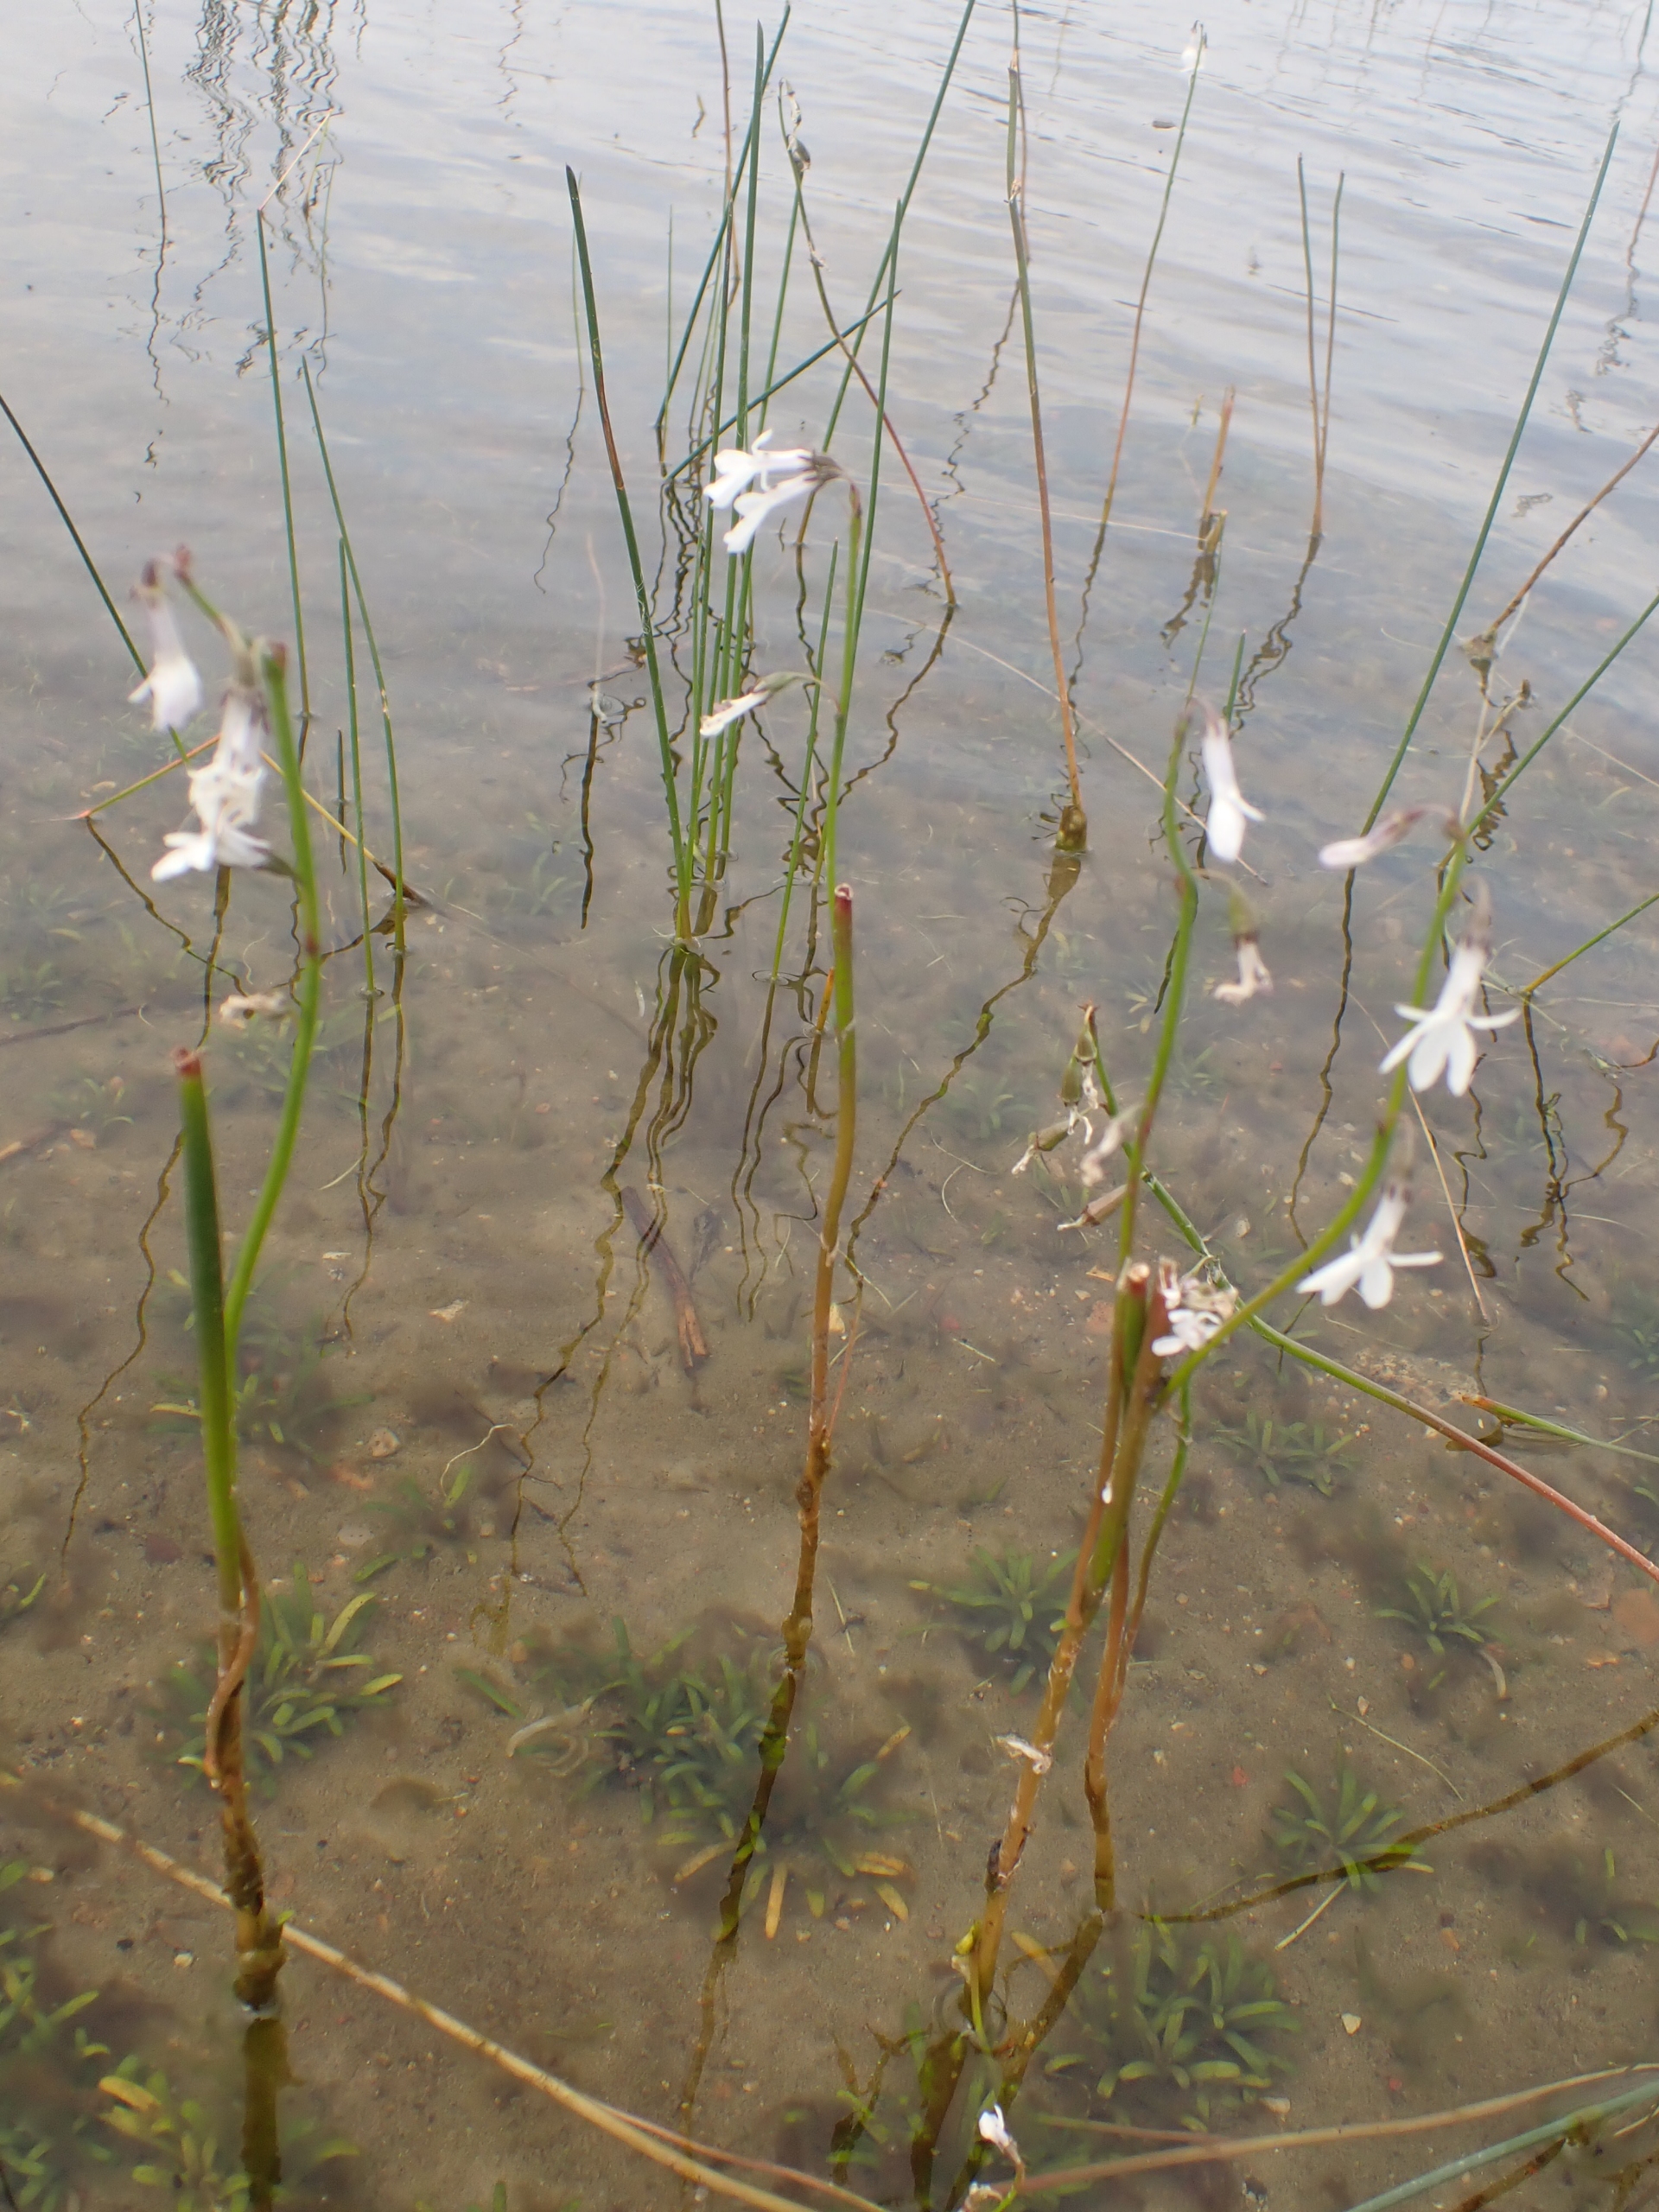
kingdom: Plantae
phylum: Tracheophyta
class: Magnoliopsida
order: Asterales
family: Campanulaceae
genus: Lobelia
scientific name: Lobelia dortmanna
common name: Tvepibet lobelie
